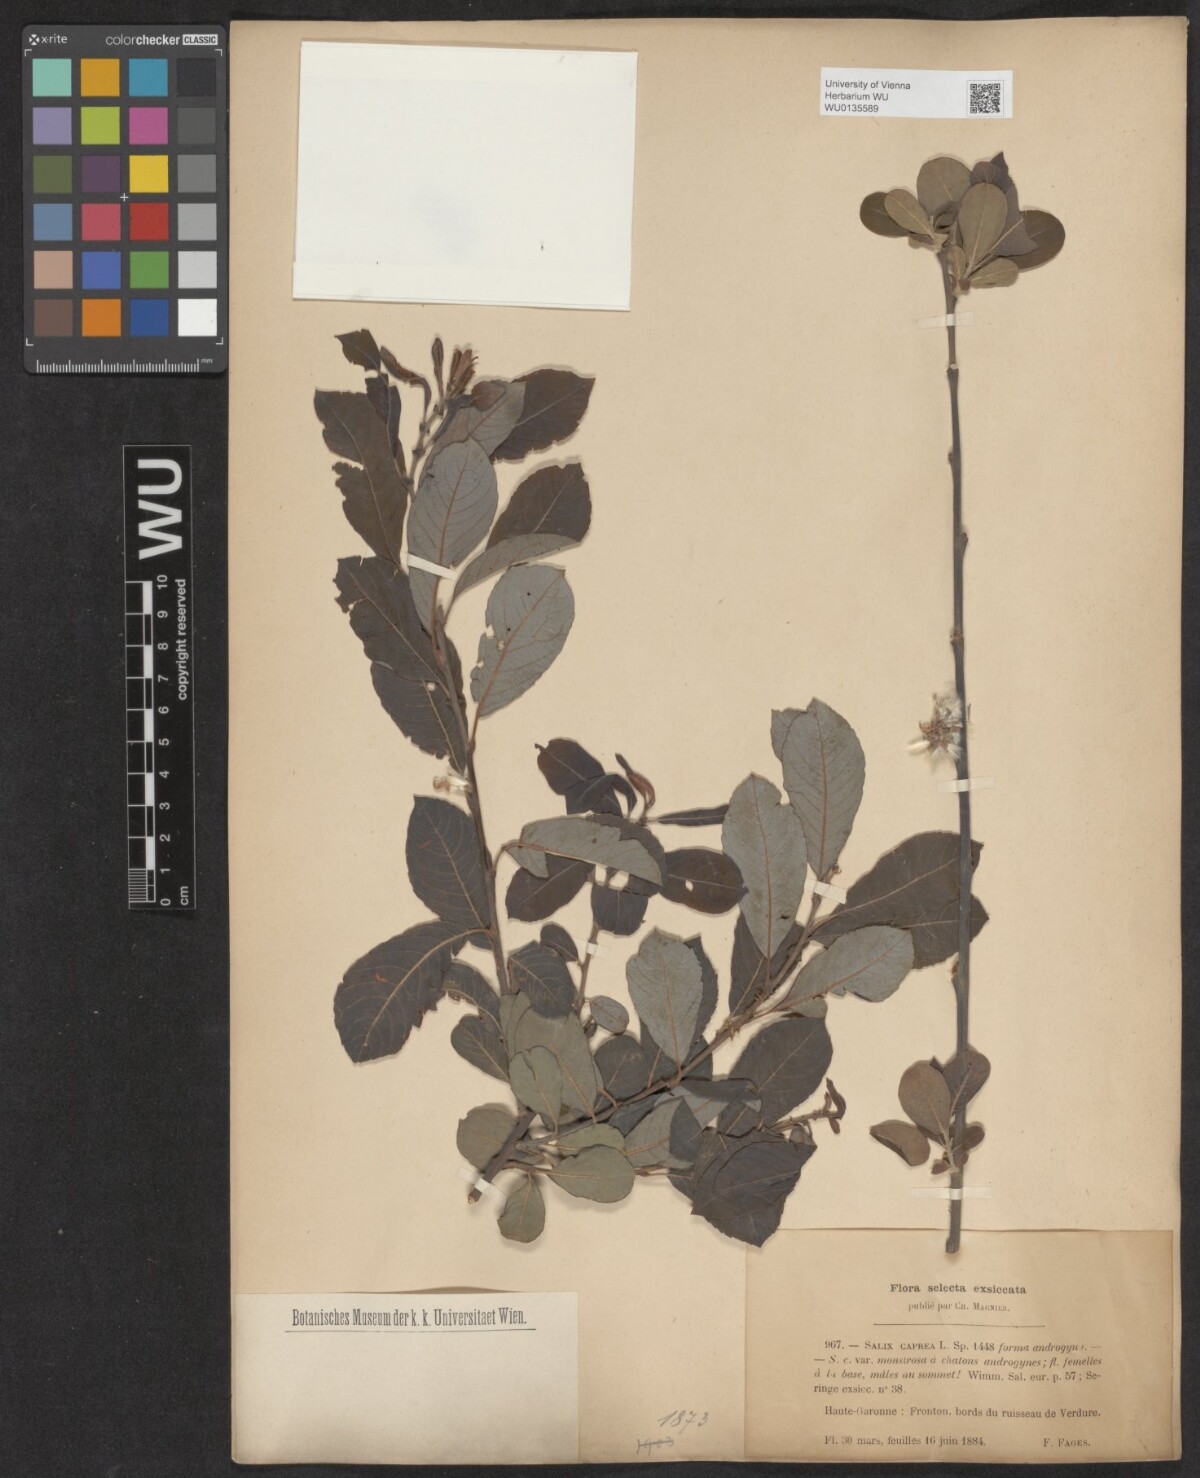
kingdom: Plantae
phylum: Tracheophyta
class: Magnoliopsida
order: Malpighiales
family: Salicaceae
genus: Salix
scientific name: Salix caprea
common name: Goat willow
